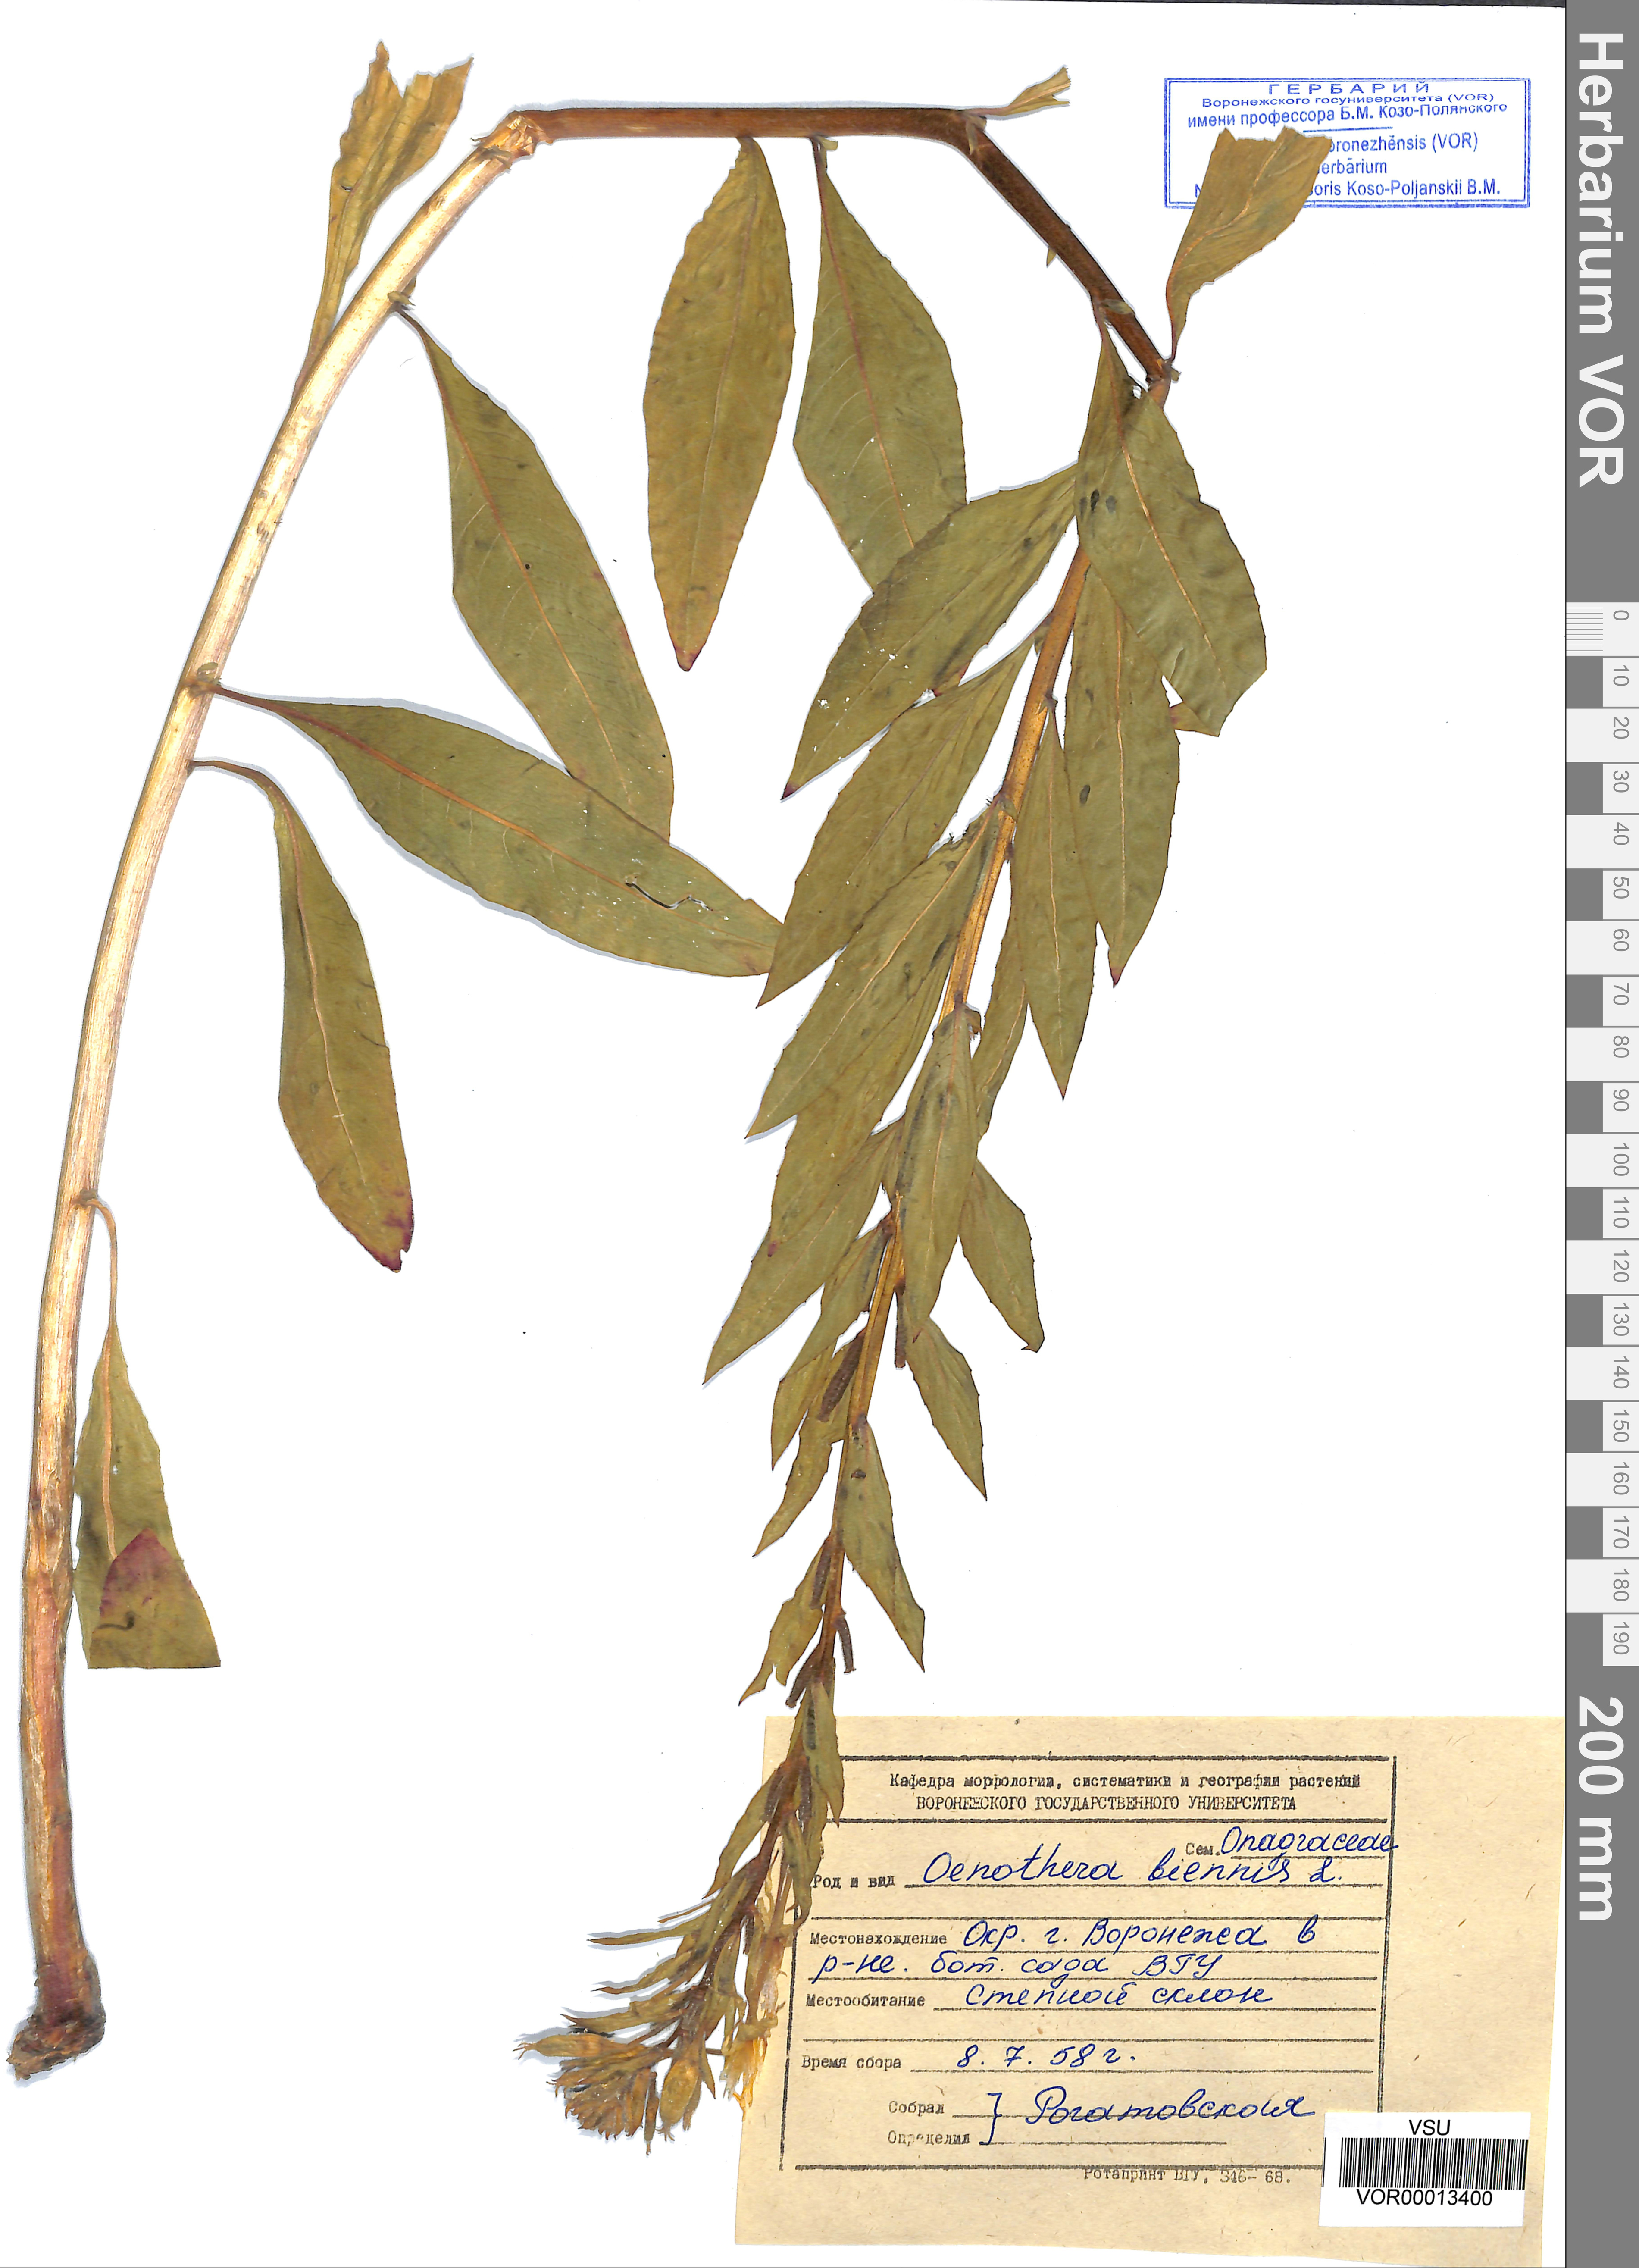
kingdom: Plantae
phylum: Tracheophyta
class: Magnoliopsida
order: Myrtales
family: Onagraceae
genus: Oenothera
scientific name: Oenothera biennis
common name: Common evening-primrose
